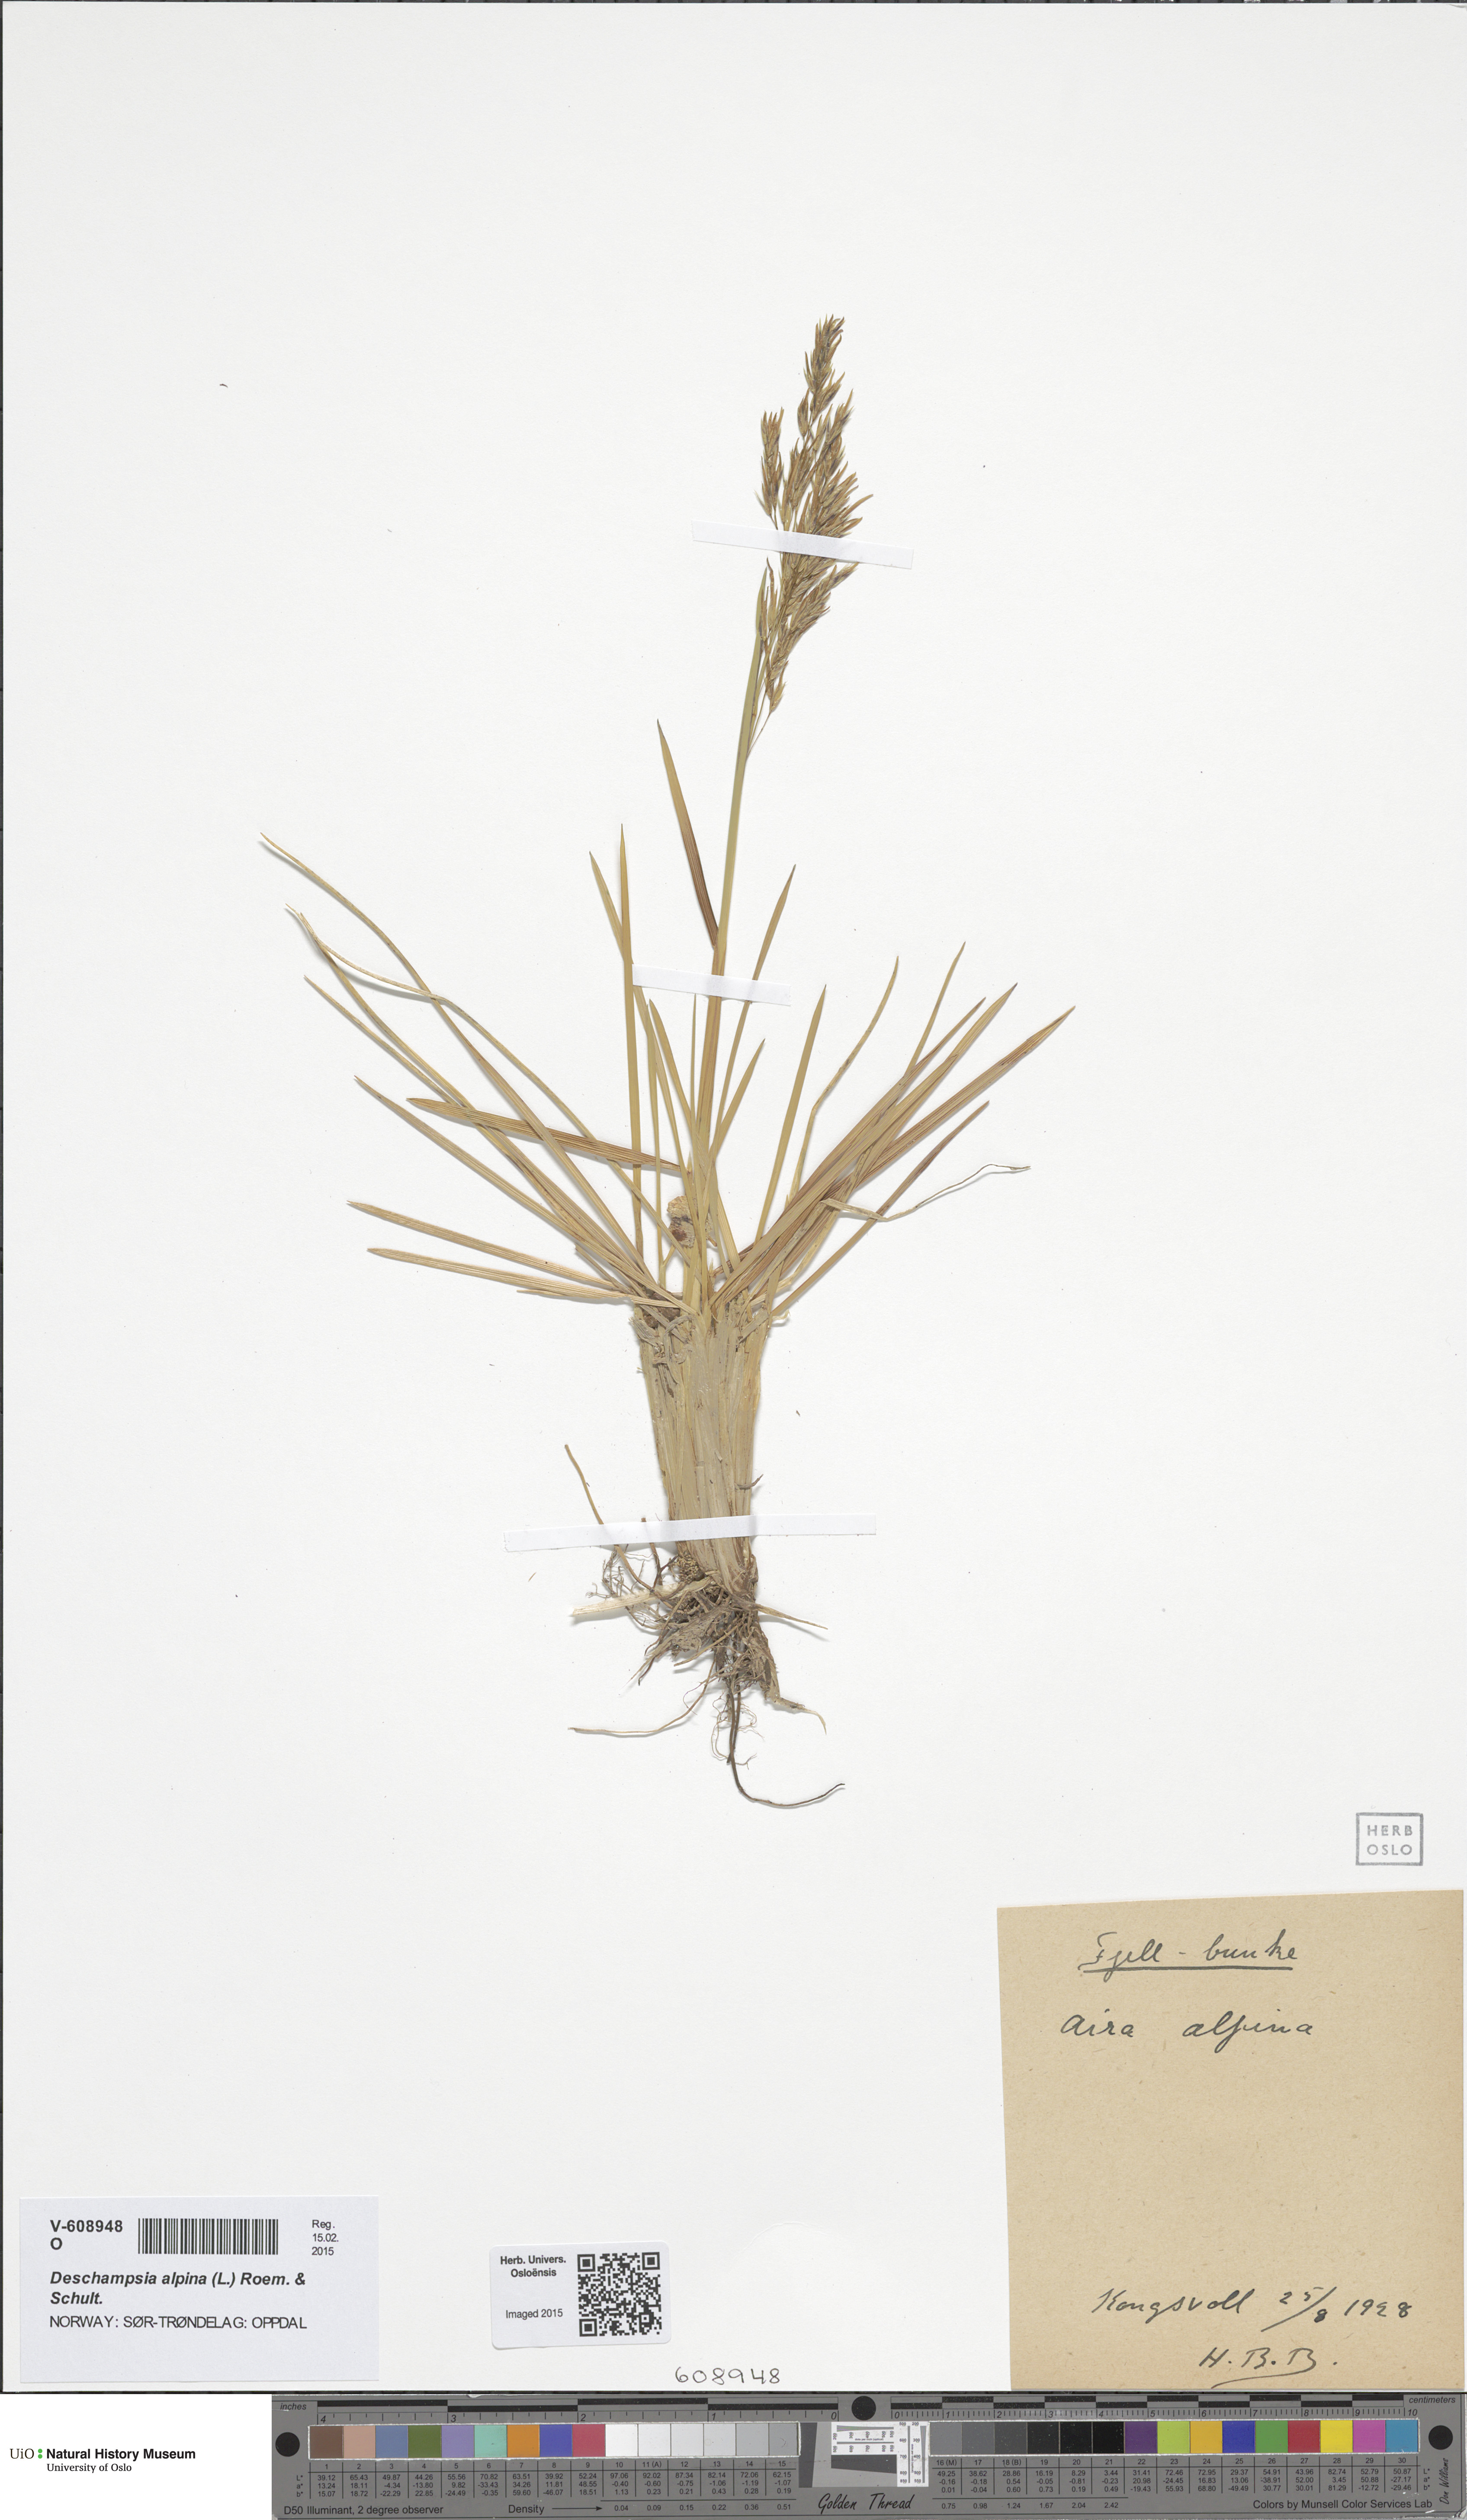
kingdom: Plantae
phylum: Tracheophyta
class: Liliopsida
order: Poales
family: Poaceae
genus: Deschampsia
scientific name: Deschampsia cespitosa
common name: Tufted hair-grass
